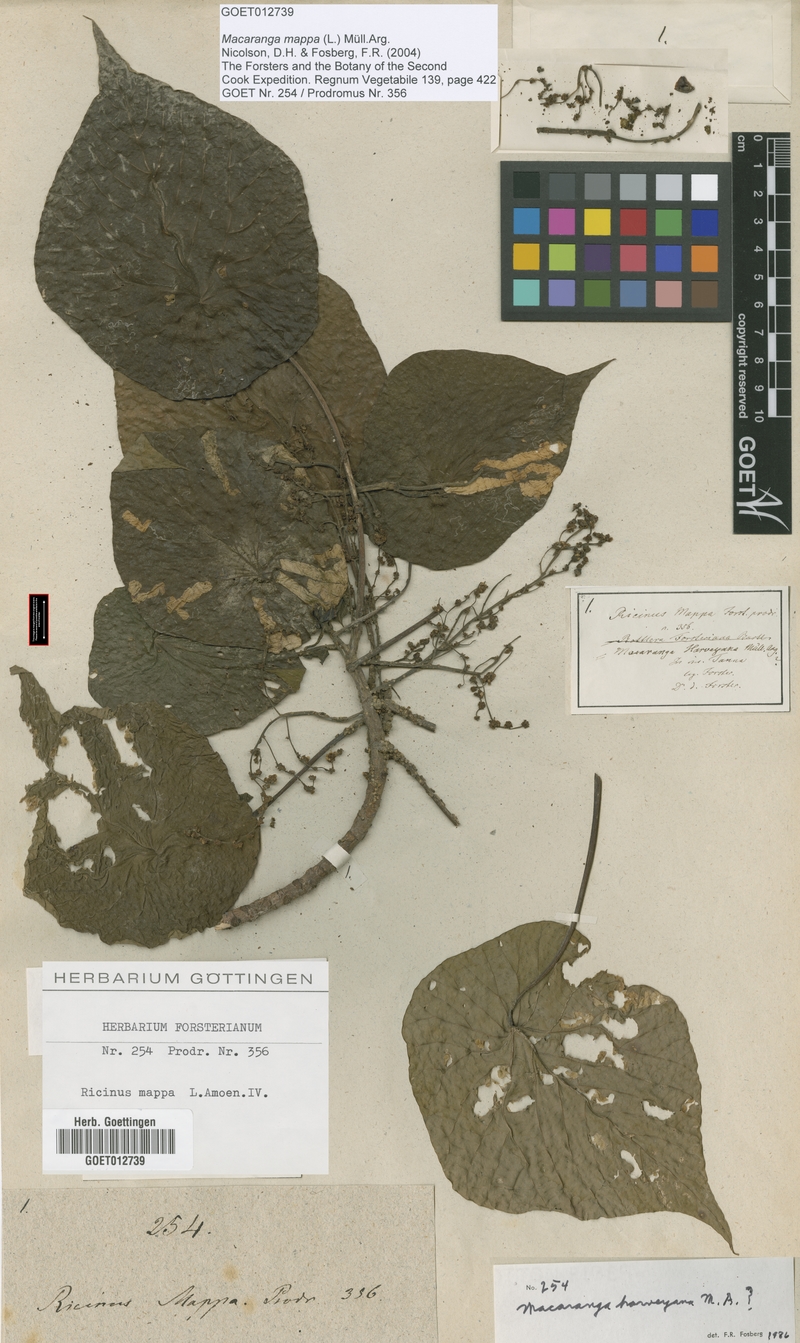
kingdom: Plantae
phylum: Tracheophyta
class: Magnoliopsida
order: Malpighiales
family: Euphorbiaceae
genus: Macaranga
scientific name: Macaranga mappa
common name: Pengua
